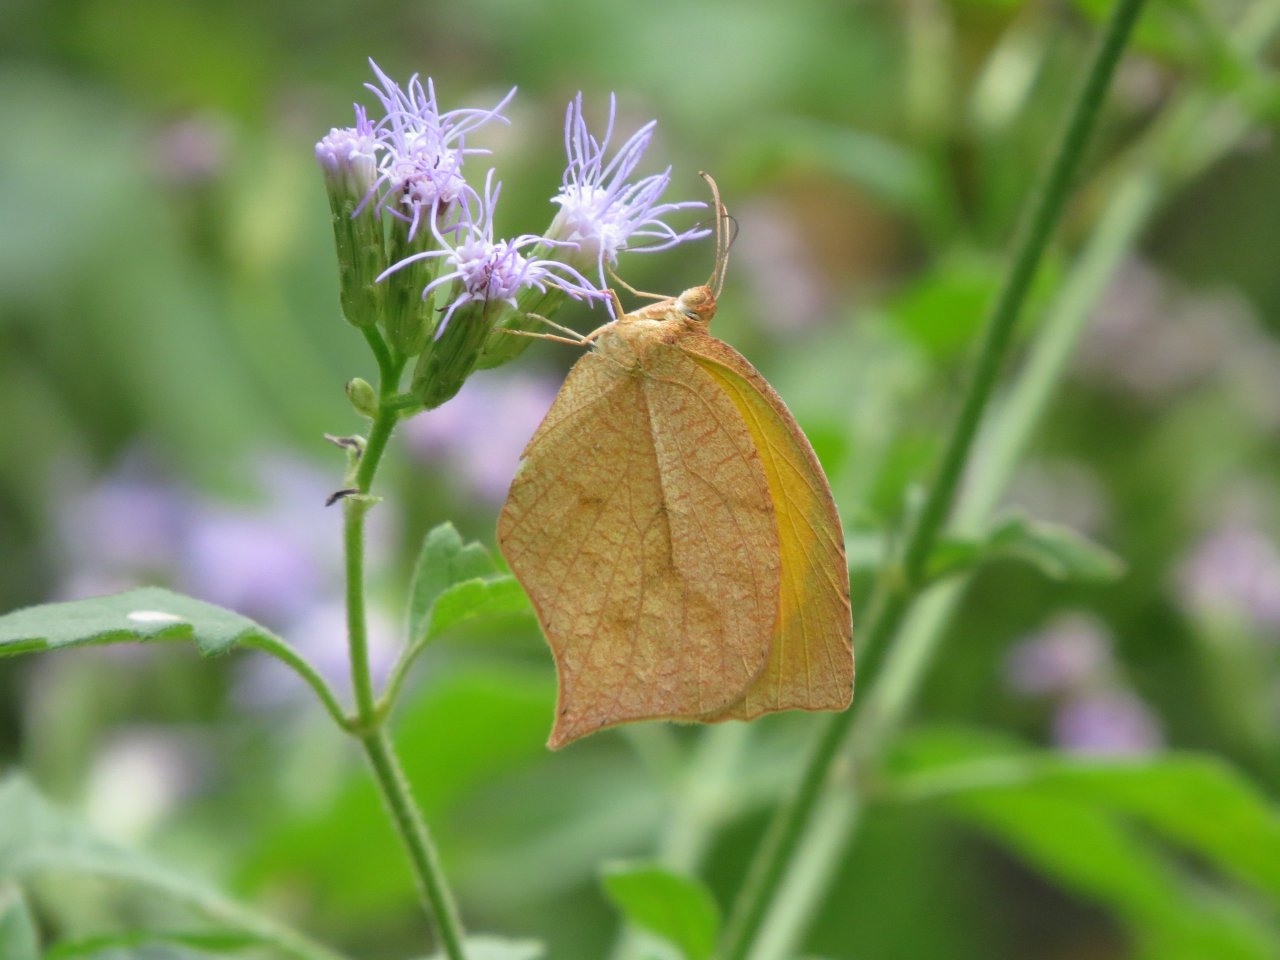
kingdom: Animalia
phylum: Arthropoda
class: Insecta
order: Lepidoptera
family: Pieridae
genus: Pyrisitia
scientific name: Pyrisitia proterpia
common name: Tailed Orange
